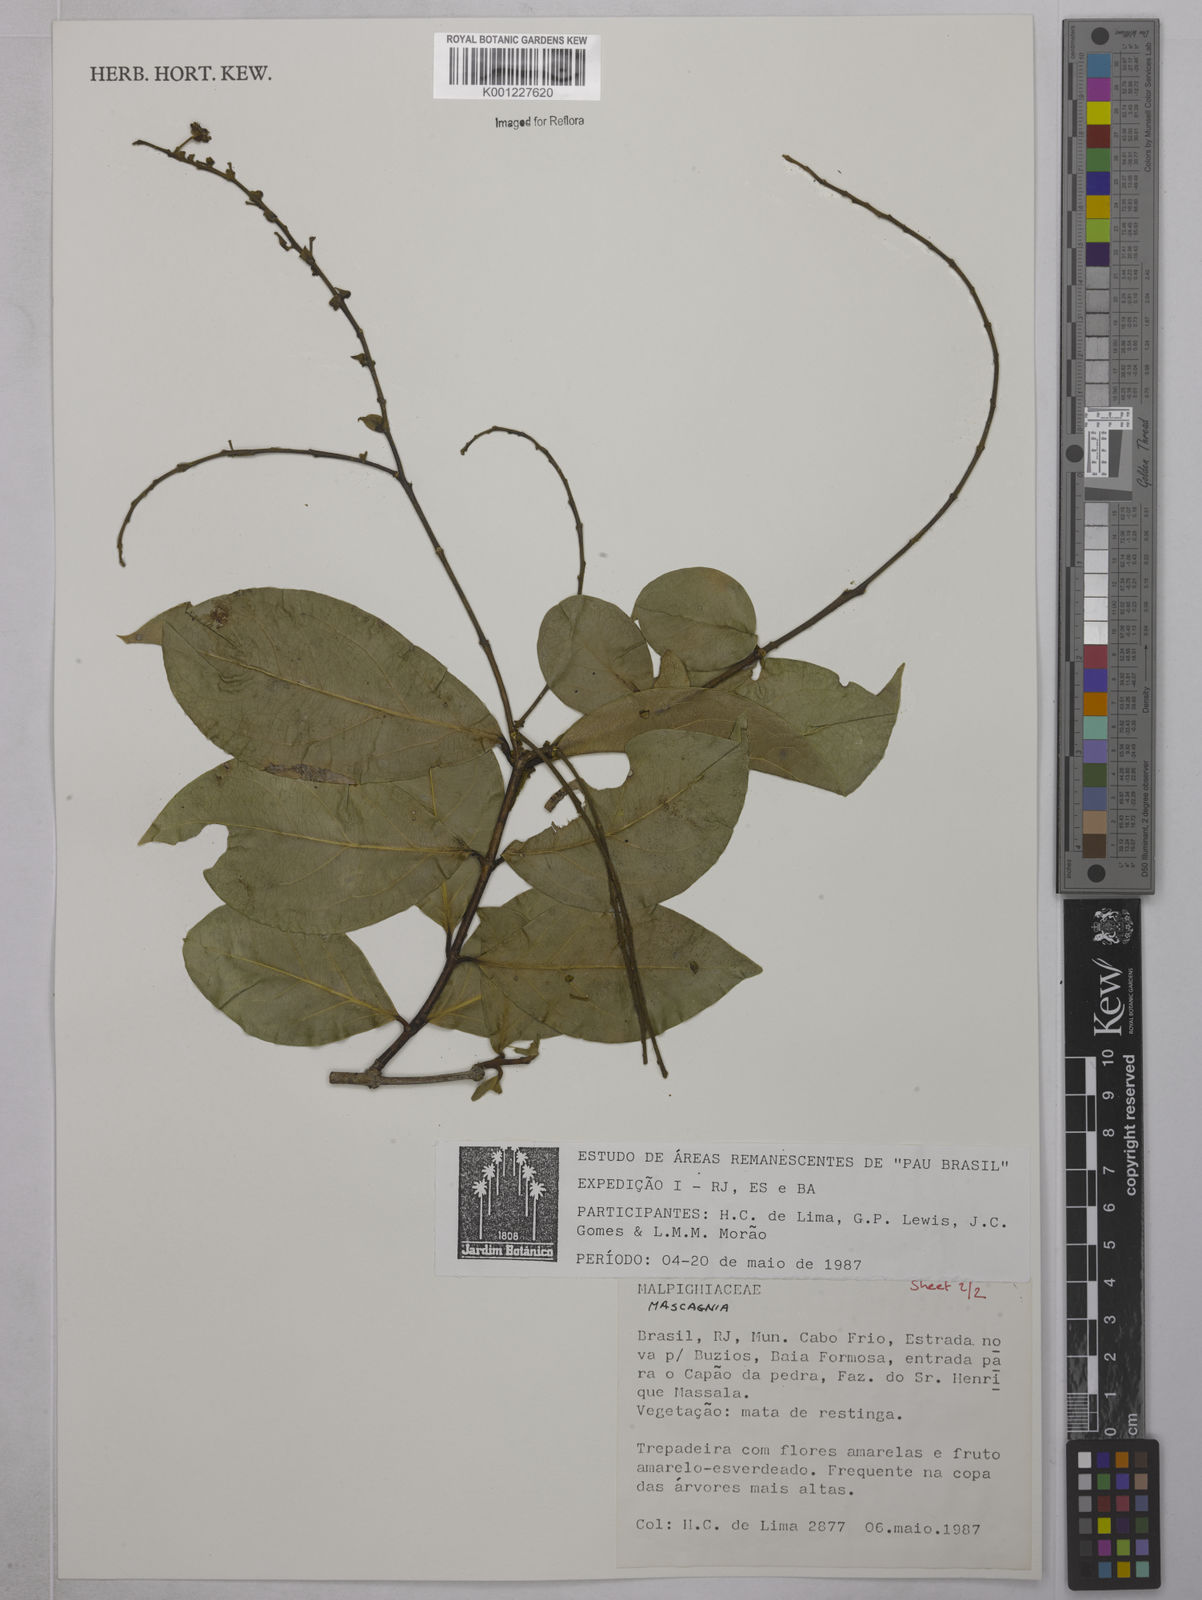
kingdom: Plantae
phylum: Tracheophyta
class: Magnoliopsida
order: Malpighiales
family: Malpighiaceae
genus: Mascagnia
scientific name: Mascagnia
